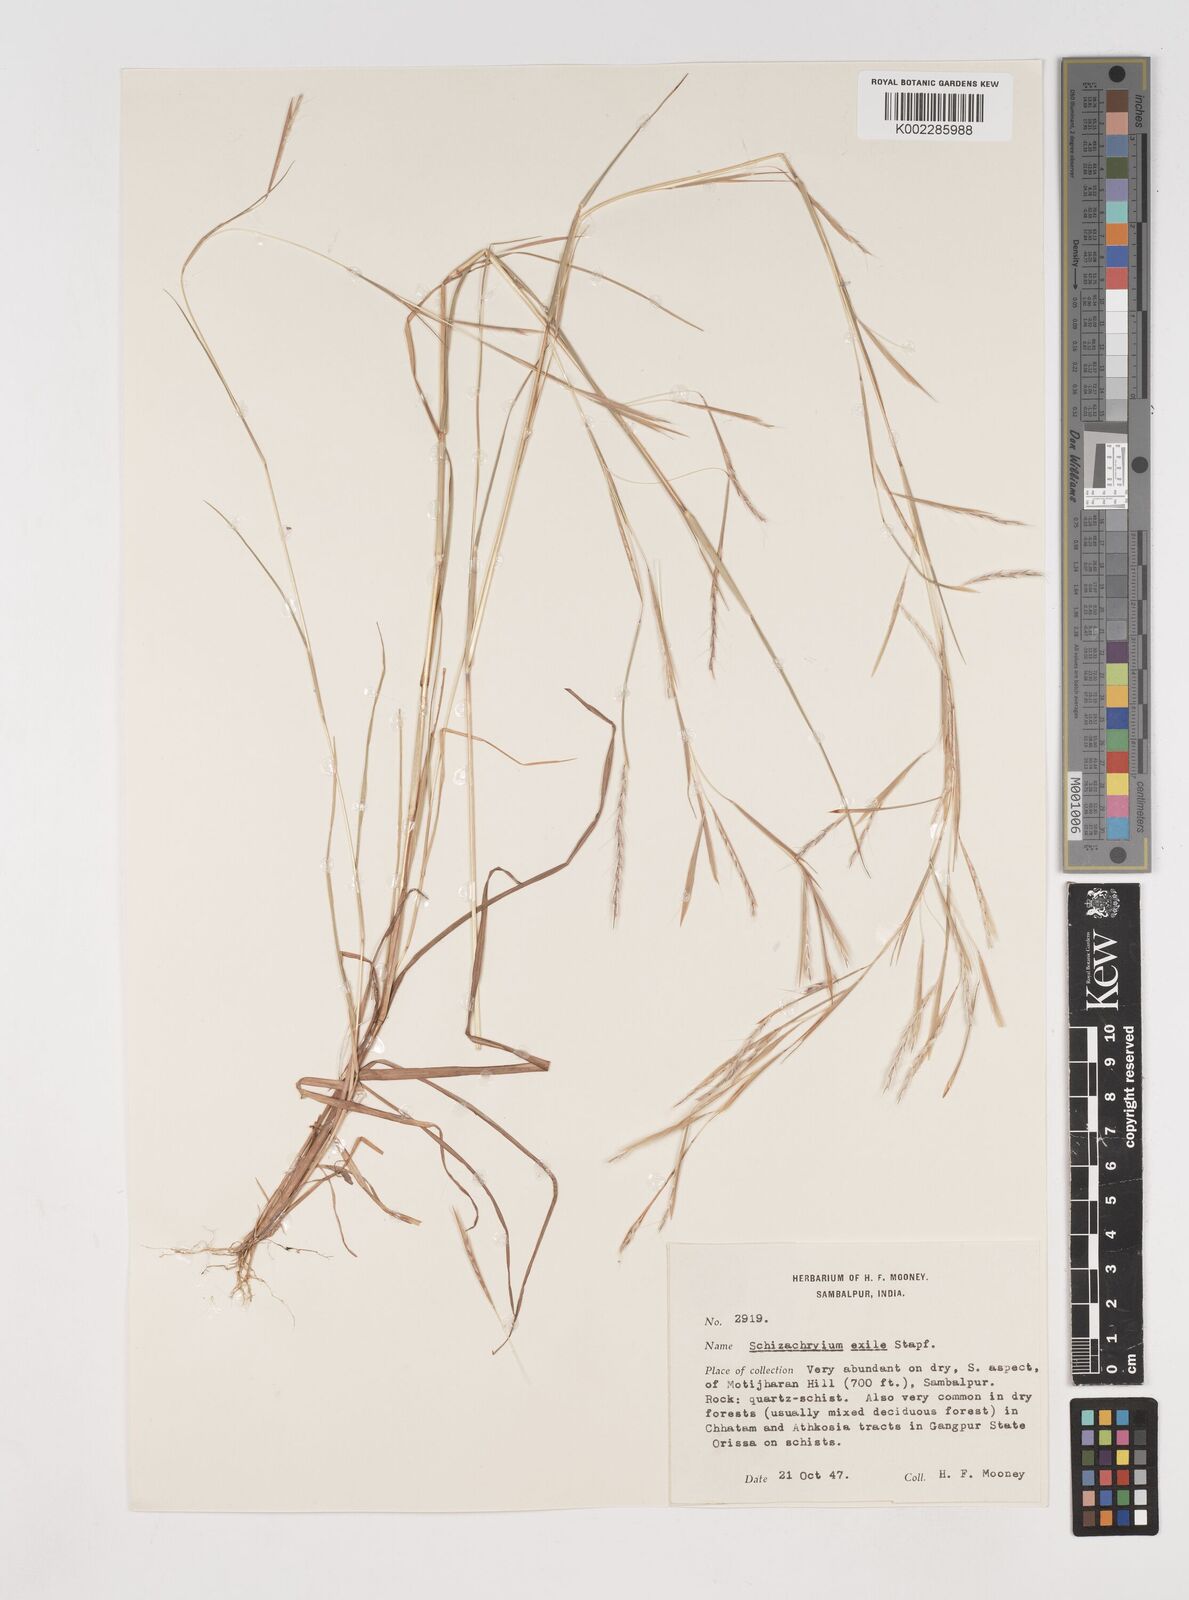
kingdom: Plantae
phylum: Tracheophyta
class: Liliopsida
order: Poales
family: Poaceae
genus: Schizachyrium
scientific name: Schizachyrium exile
